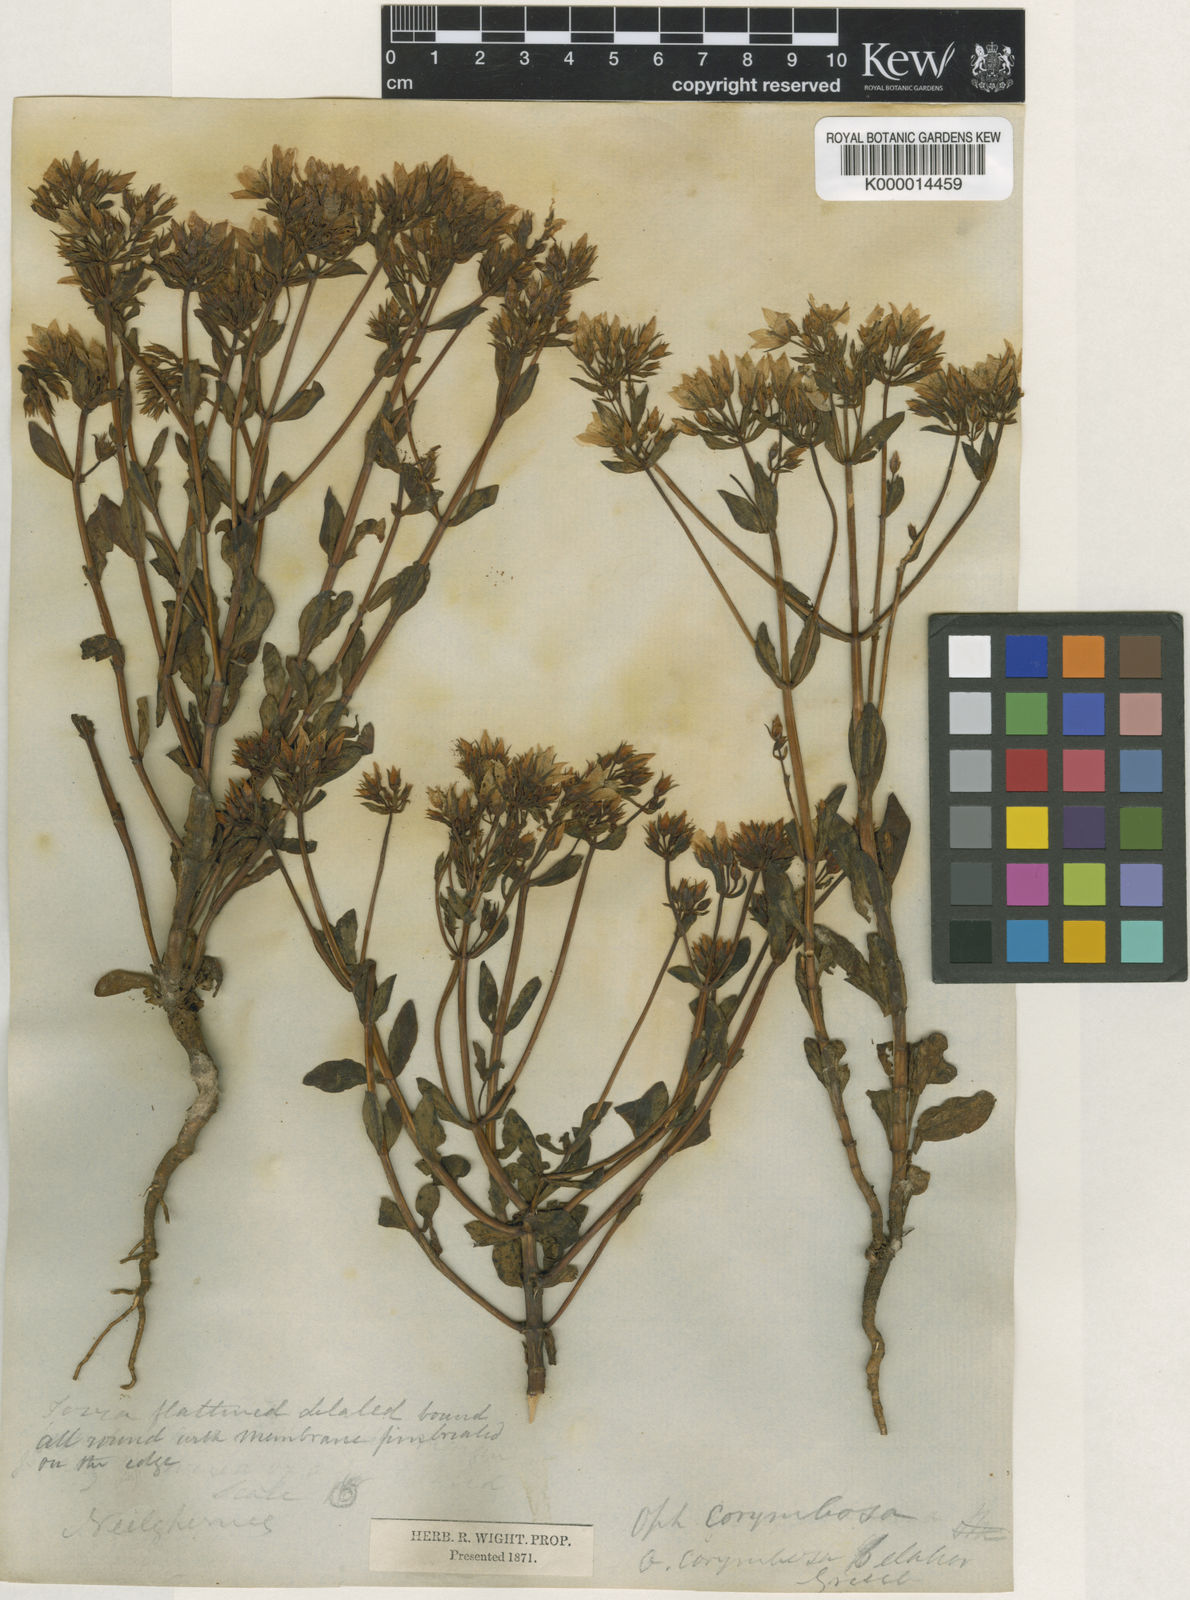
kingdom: Plantae
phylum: Tracheophyta
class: Magnoliopsida
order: Gentianales
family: Gentianaceae
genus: Swertia
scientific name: Swertia
